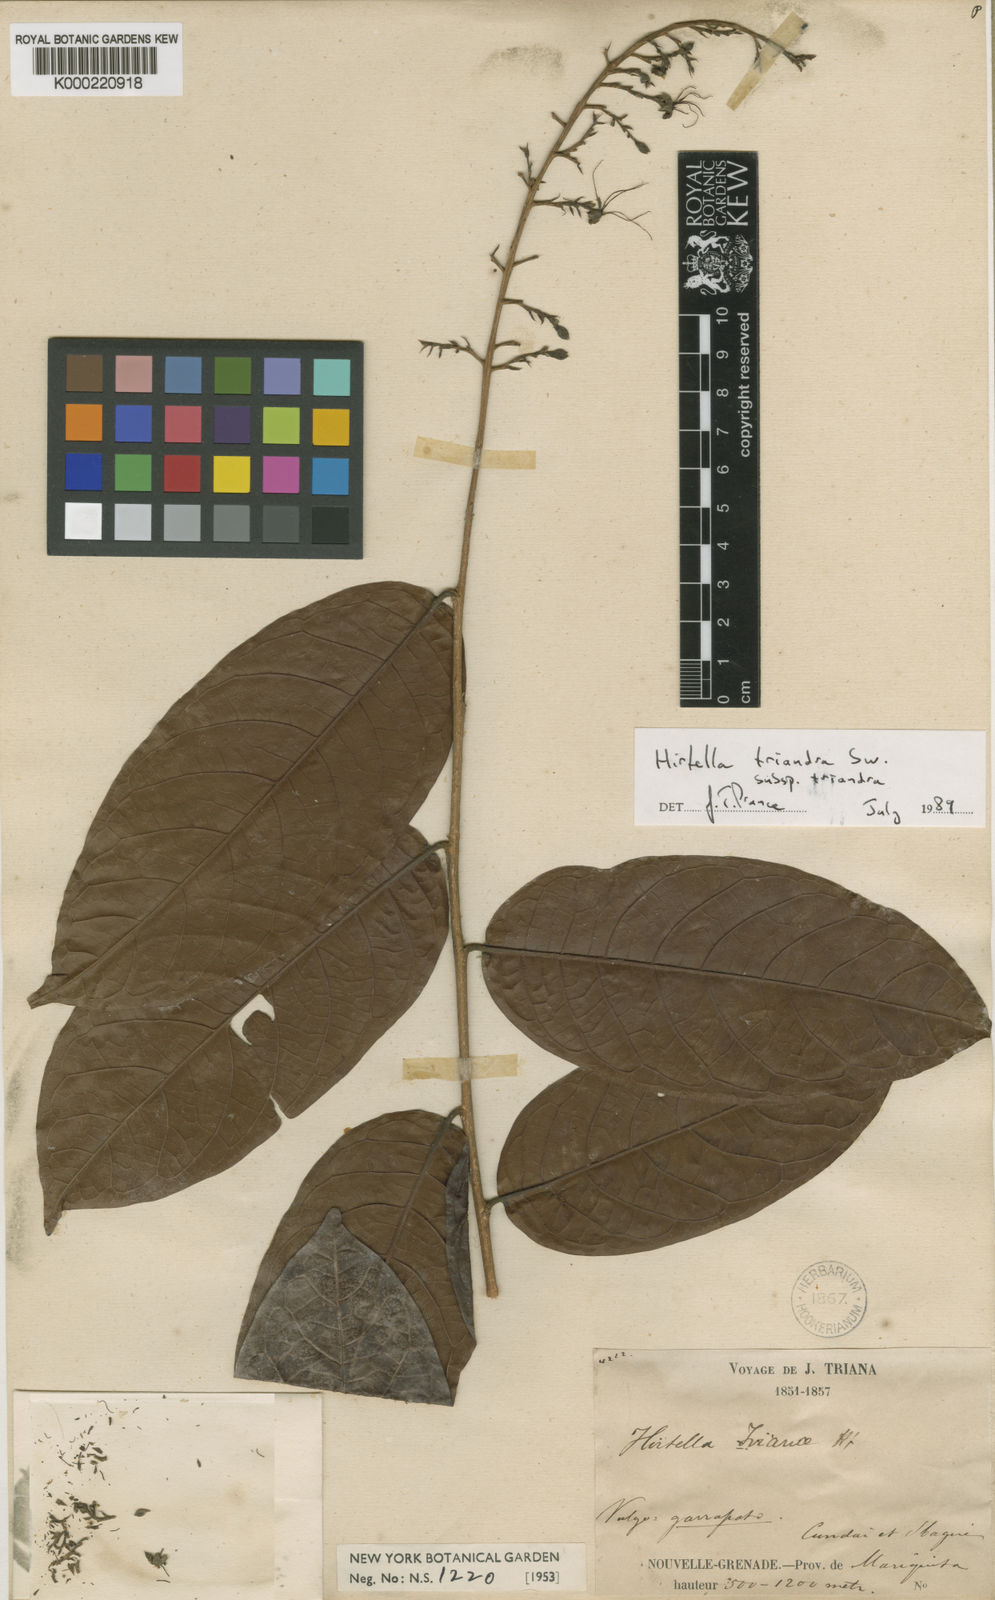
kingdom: Plantae
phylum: Tracheophyta
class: Magnoliopsida
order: Malpighiales
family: Chrysobalanaceae
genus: Hirtella
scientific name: Hirtella triandra
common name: Hairy plum
